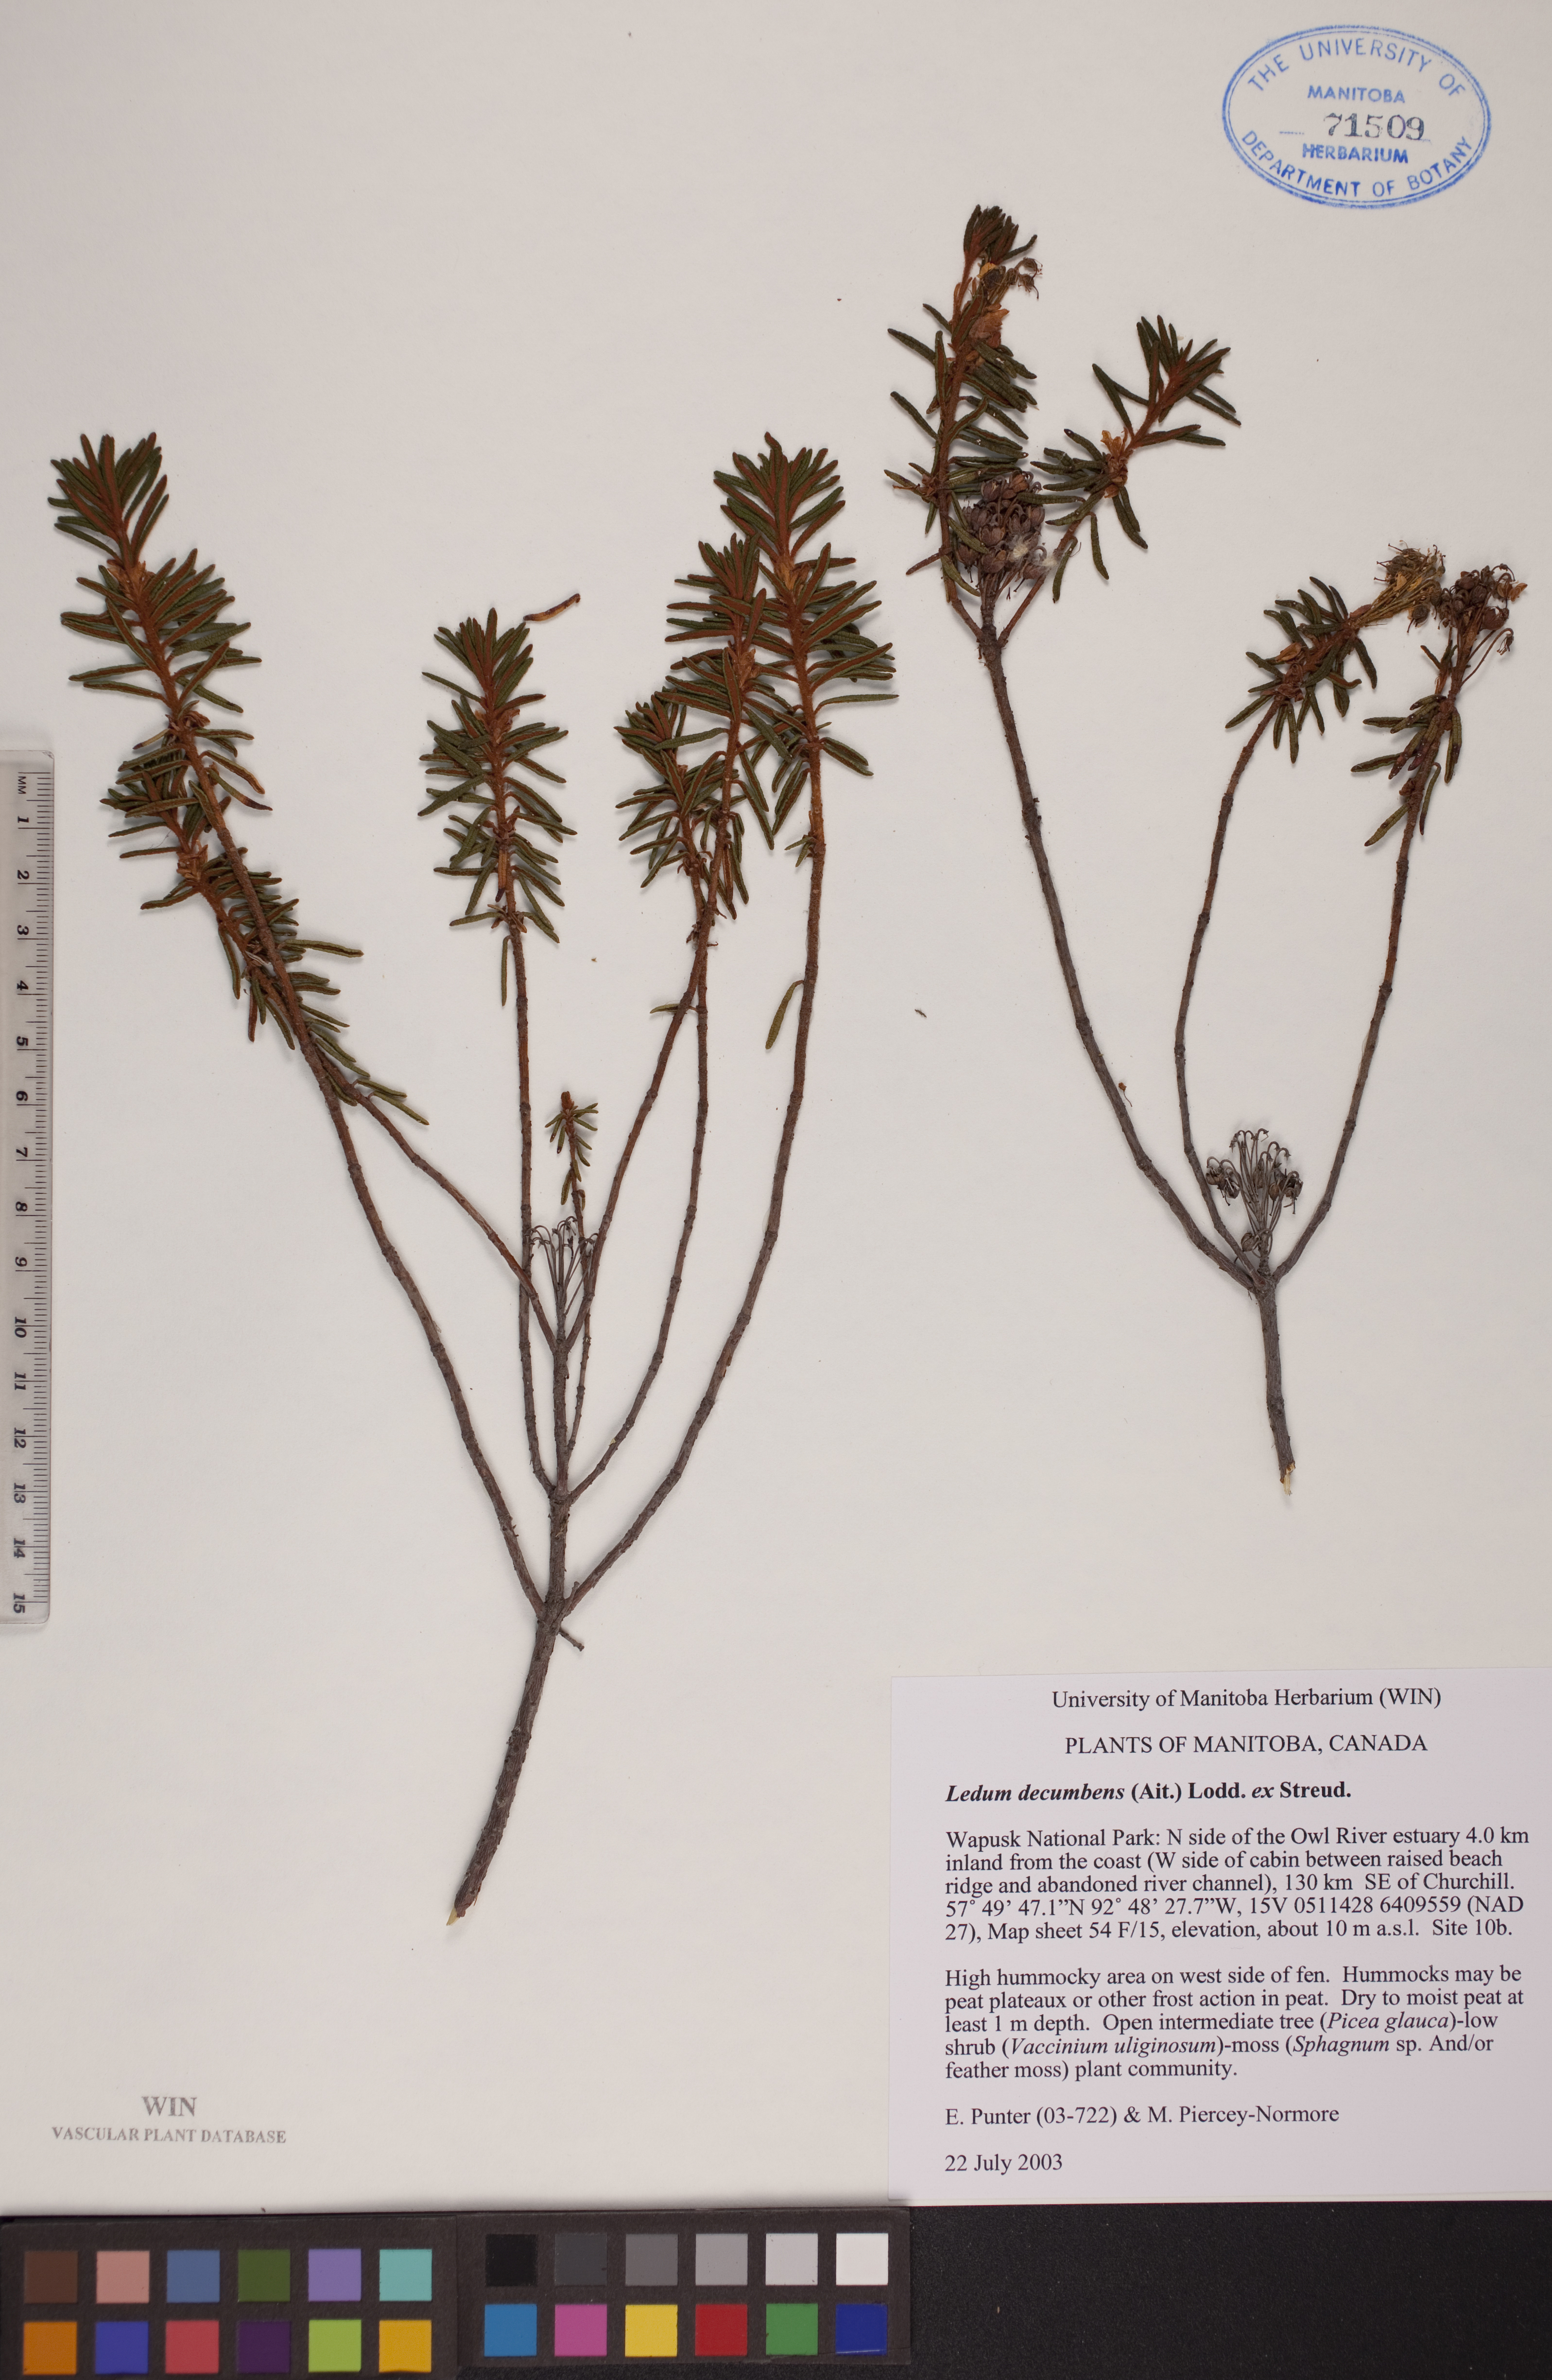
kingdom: Plantae
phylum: Tracheophyta
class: Magnoliopsida
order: Ericales
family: Ericaceae
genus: Rhododendron
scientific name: Rhododendron tomentosum
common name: Marsh labrador tea
